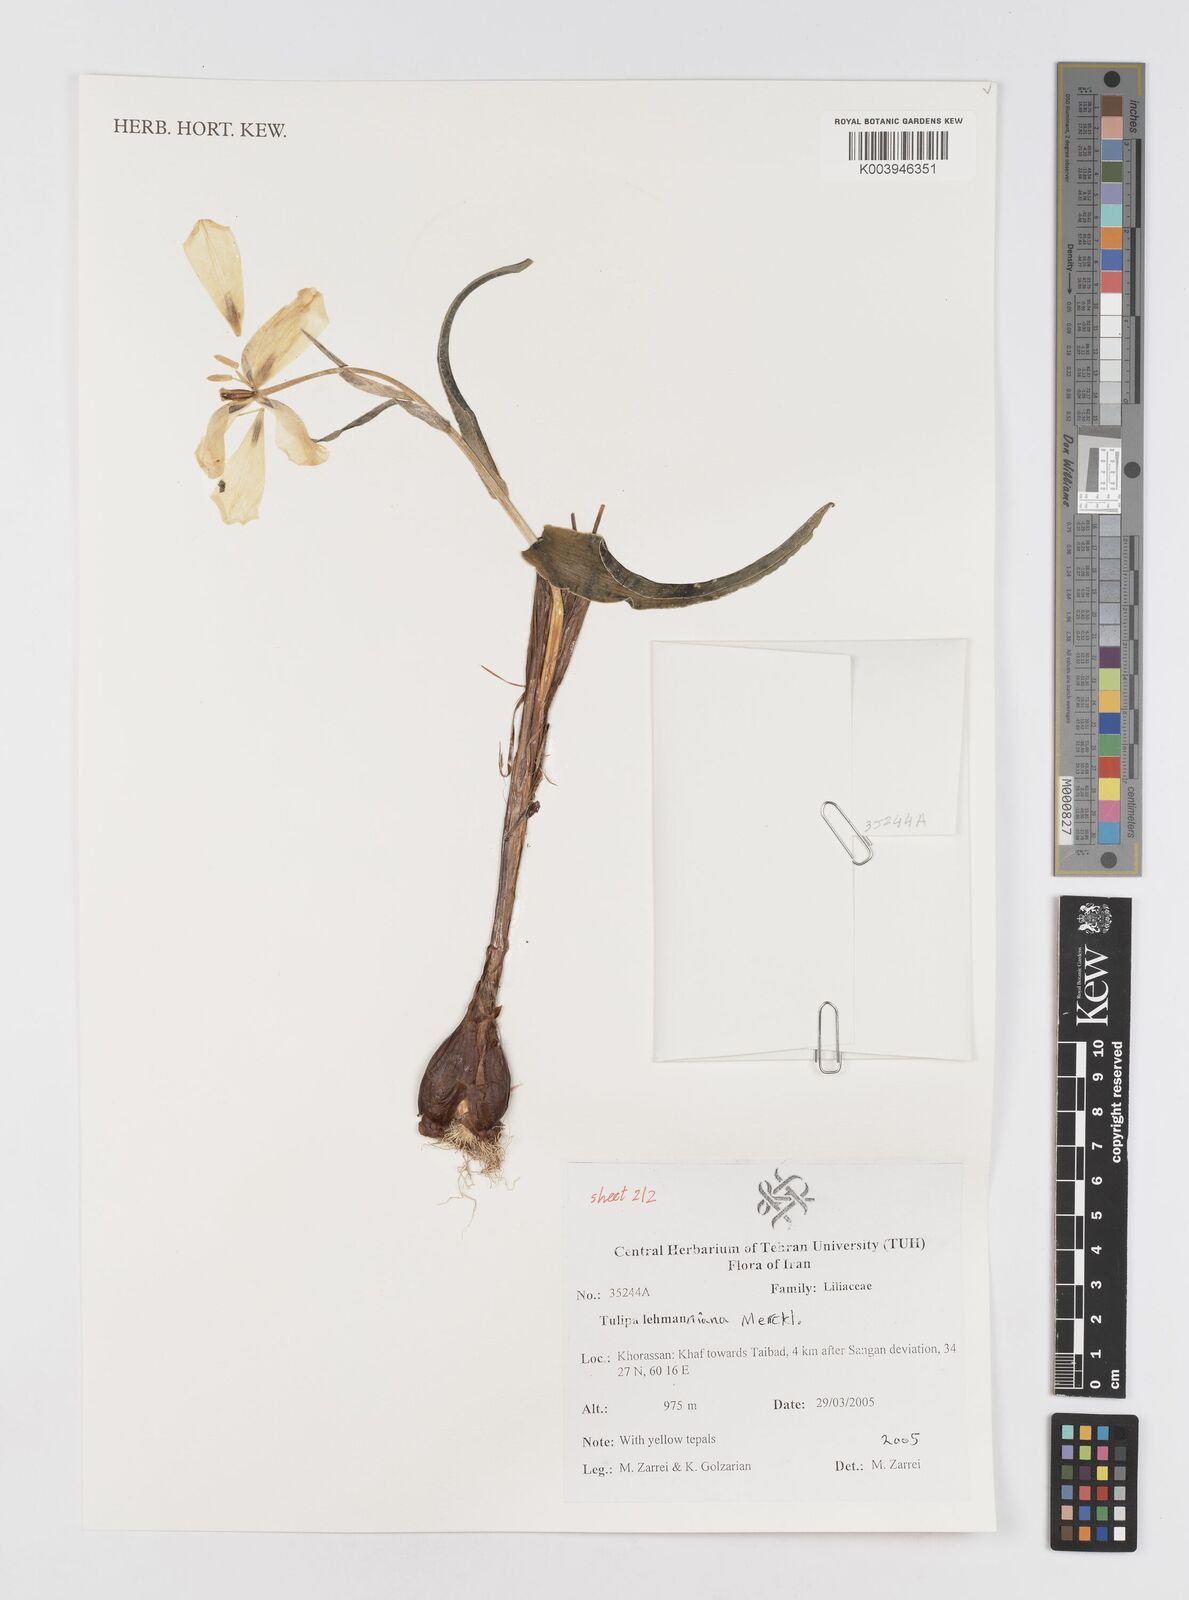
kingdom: Plantae
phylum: Tracheophyta
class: Liliopsida
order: Liliales
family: Liliaceae
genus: Tulipa
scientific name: Tulipa lehmanniana
